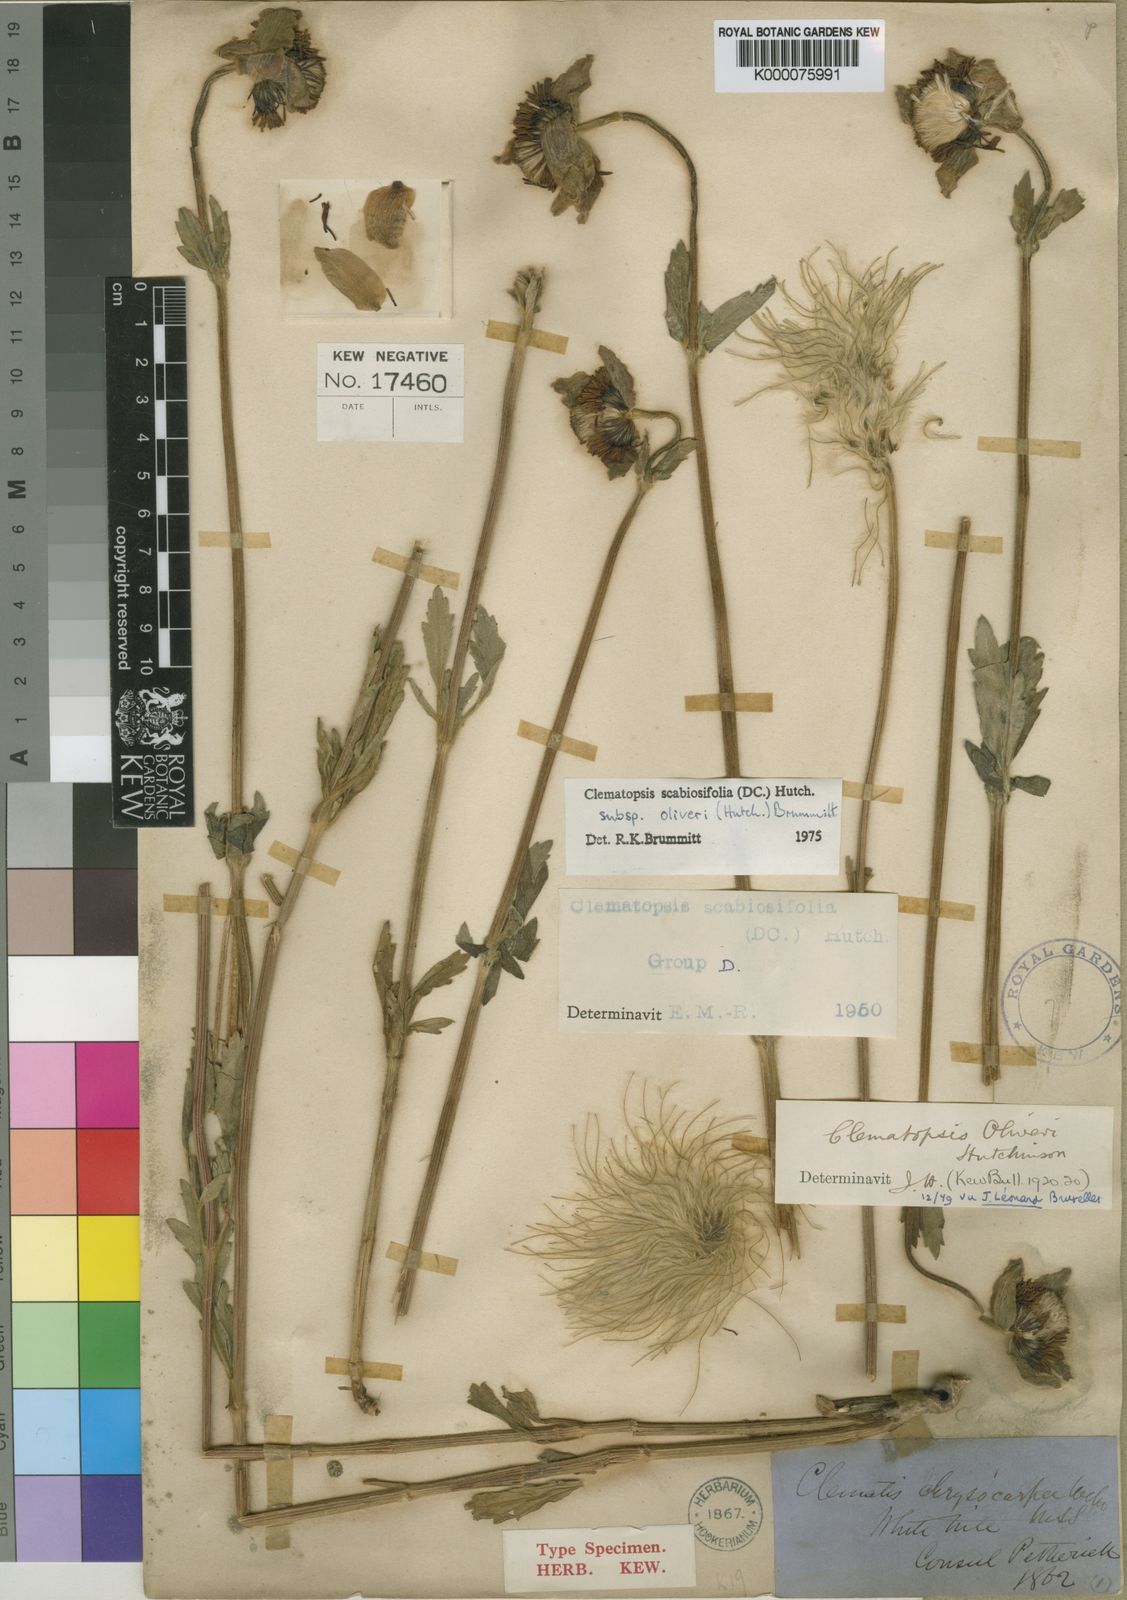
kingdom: Plantae
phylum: Tracheophyta
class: Magnoliopsida
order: Ranunculales
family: Ranunculaceae
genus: Clematis
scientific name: Clematis villosa
